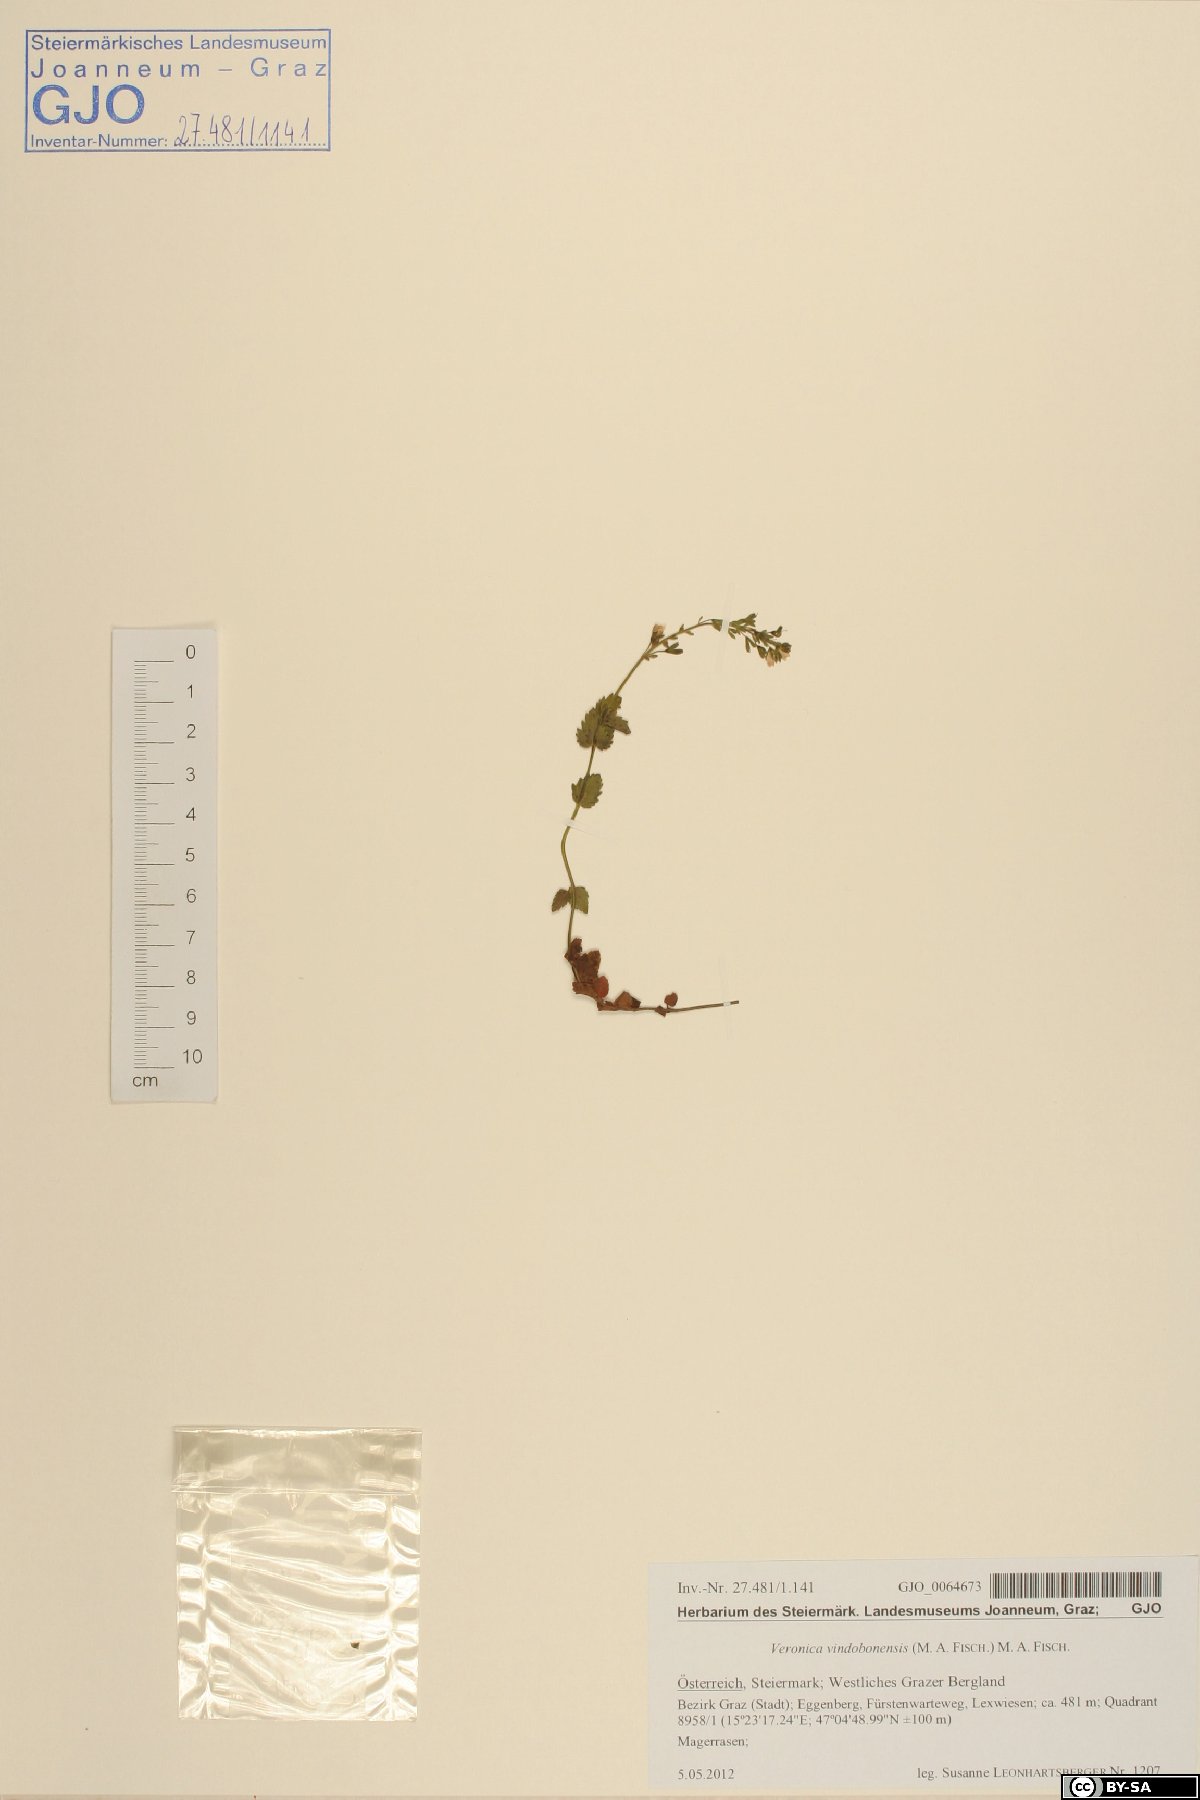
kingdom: Plantae
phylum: Tracheophyta
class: Magnoliopsida
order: Lamiales
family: Plantaginaceae
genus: Veronica
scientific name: Veronica vindobonensis
